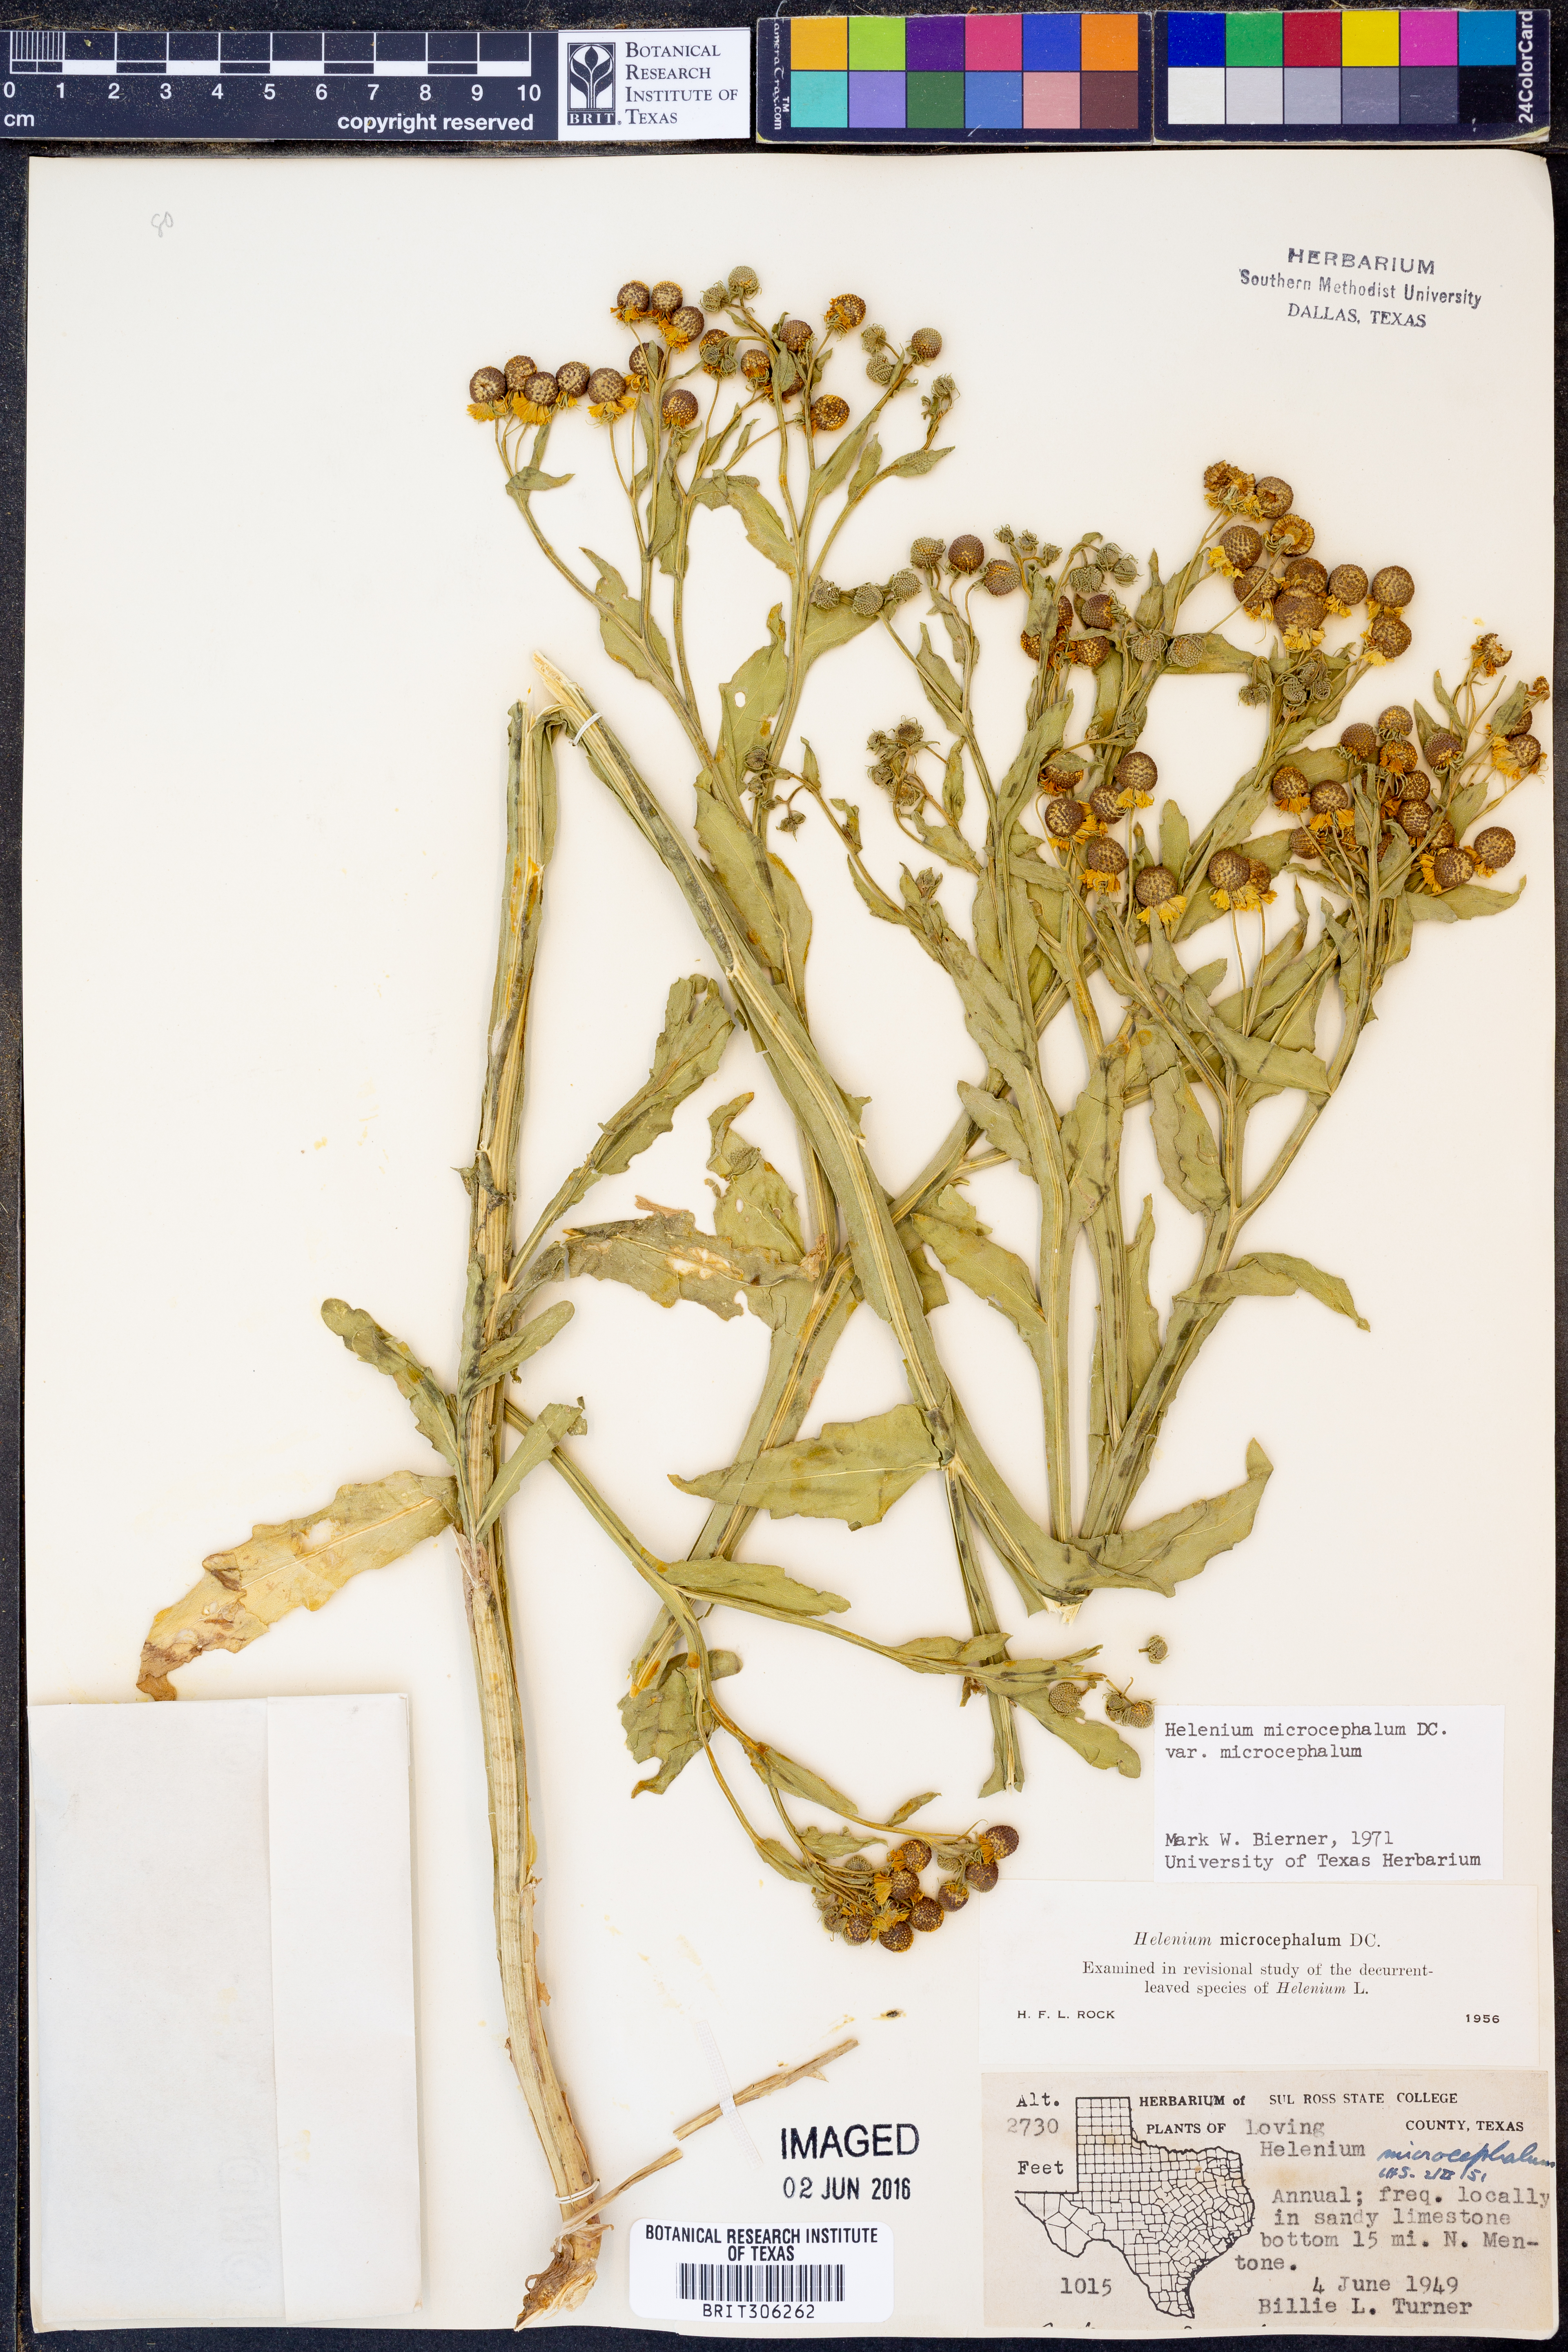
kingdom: Plantae
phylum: Tracheophyta
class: Magnoliopsida
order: Asterales
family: Asteraceae
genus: Helenium
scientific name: Helenium microcephalum
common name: Smallhead sneezeweed
